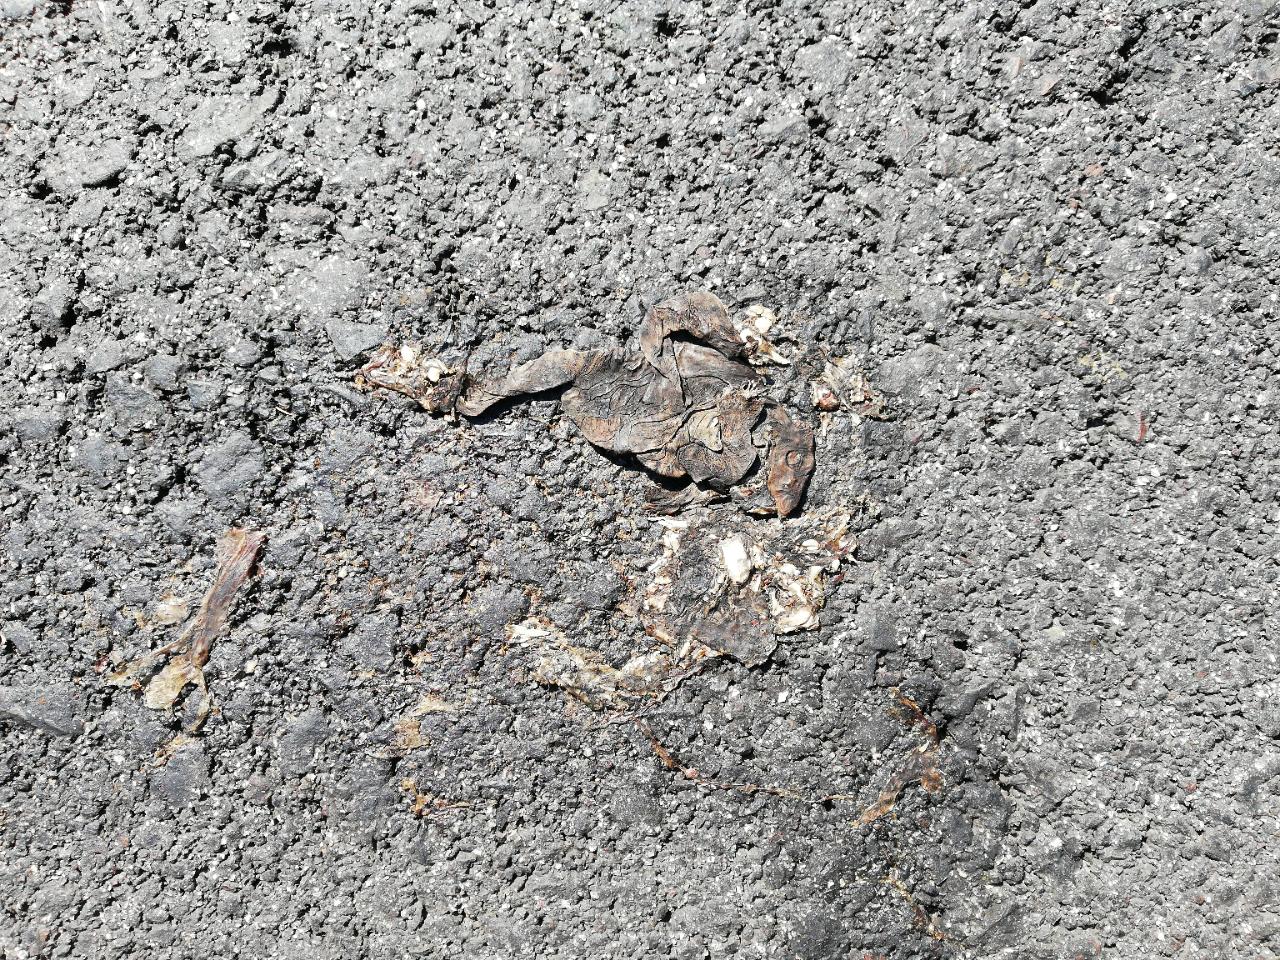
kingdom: Animalia
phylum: Chordata
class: Amphibia
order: Anura
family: Bufonidae
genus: Bufo
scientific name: Bufo bufo
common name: Common toad
